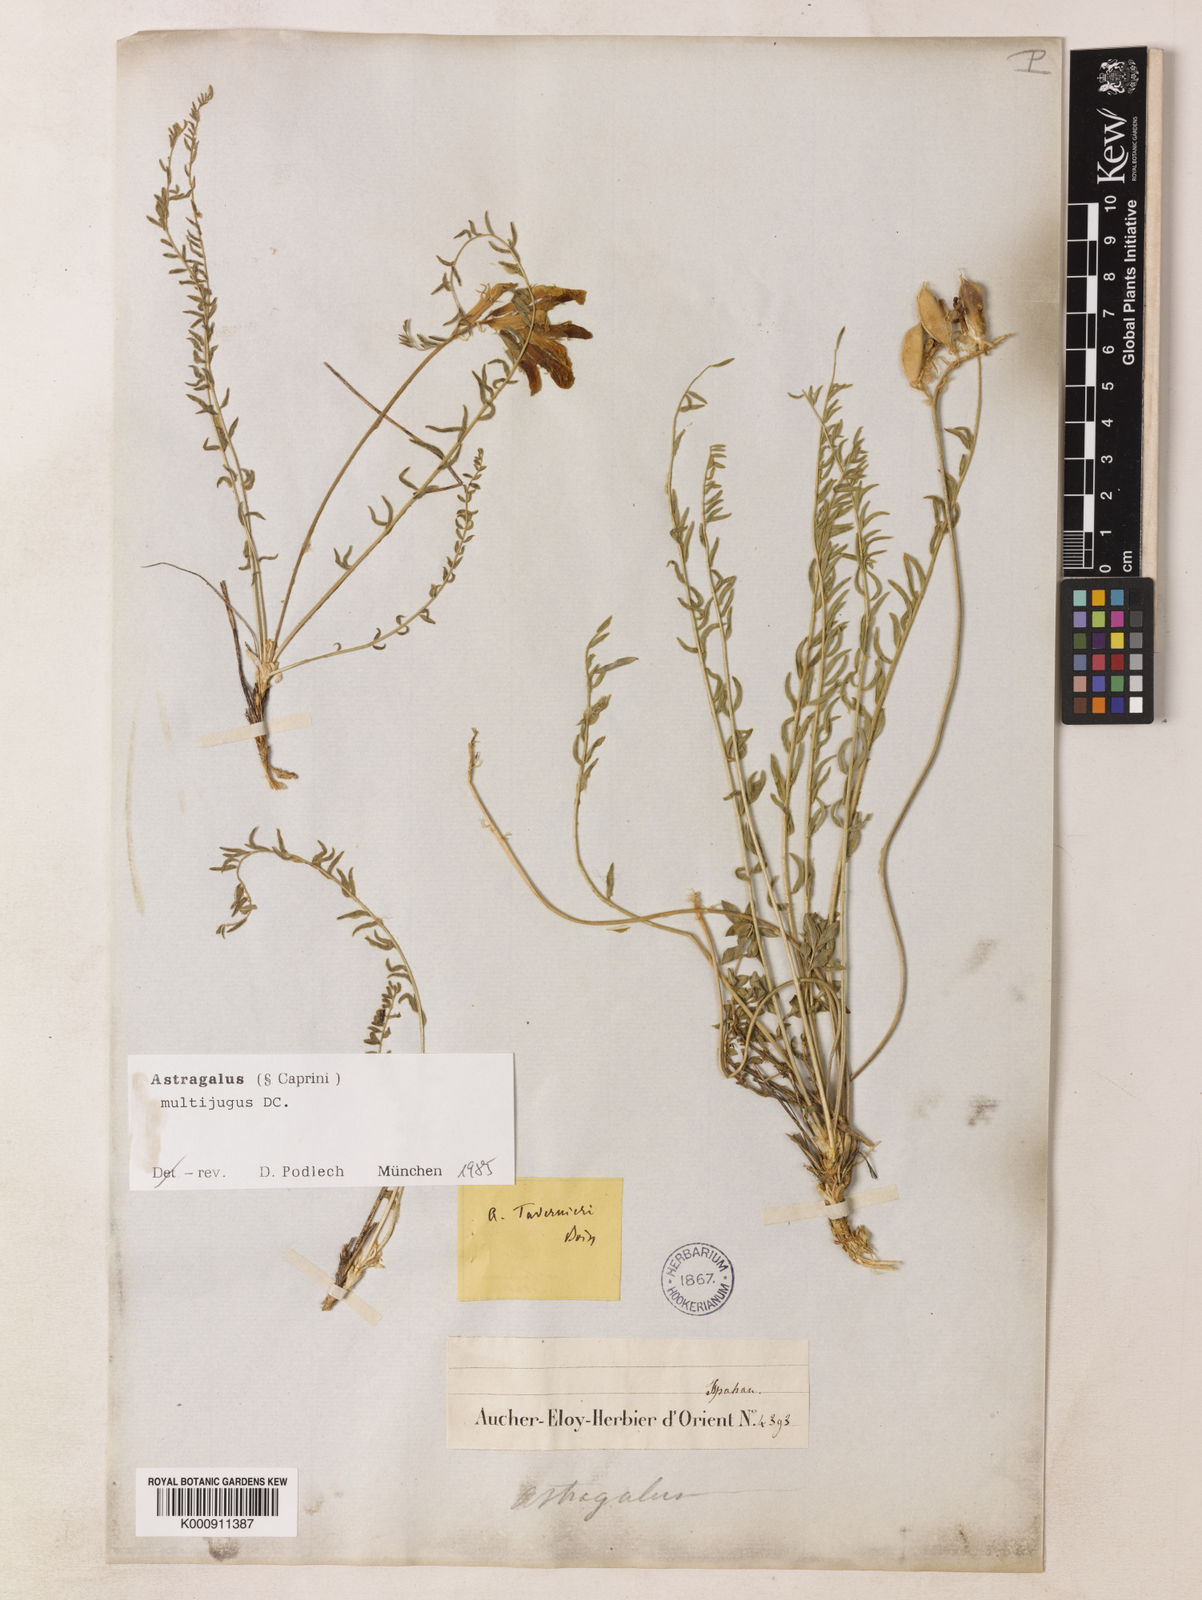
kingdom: Plantae
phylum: Tracheophyta
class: Magnoliopsida
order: Fabales
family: Fabaceae
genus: Astragalus
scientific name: Astragalus multijugus
